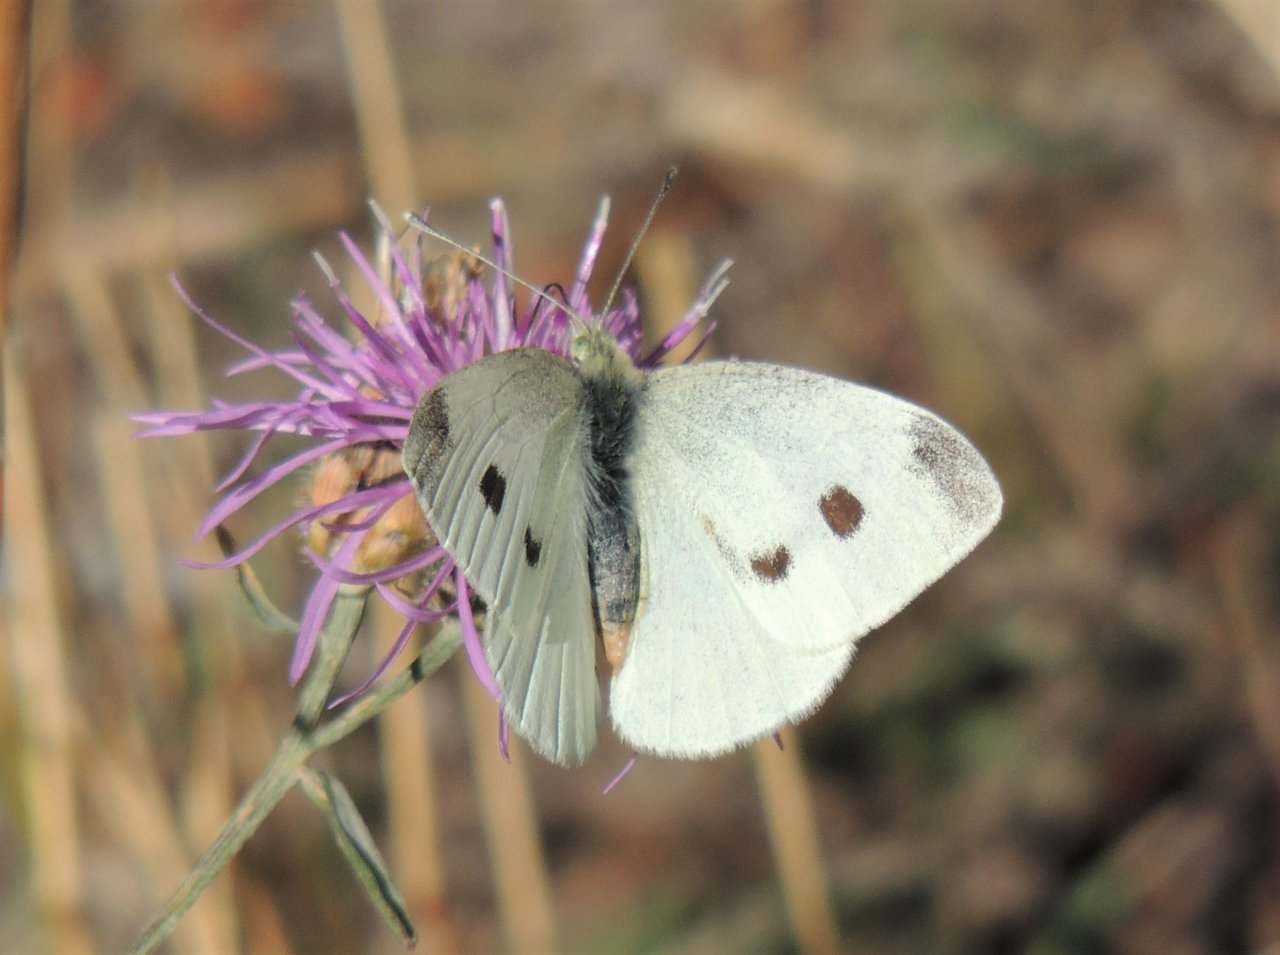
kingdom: Animalia
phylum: Arthropoda
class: Insecta
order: Lepidoptera
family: Pieridae
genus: Pieris
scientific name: Pieris rapae
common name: Cabbage White
